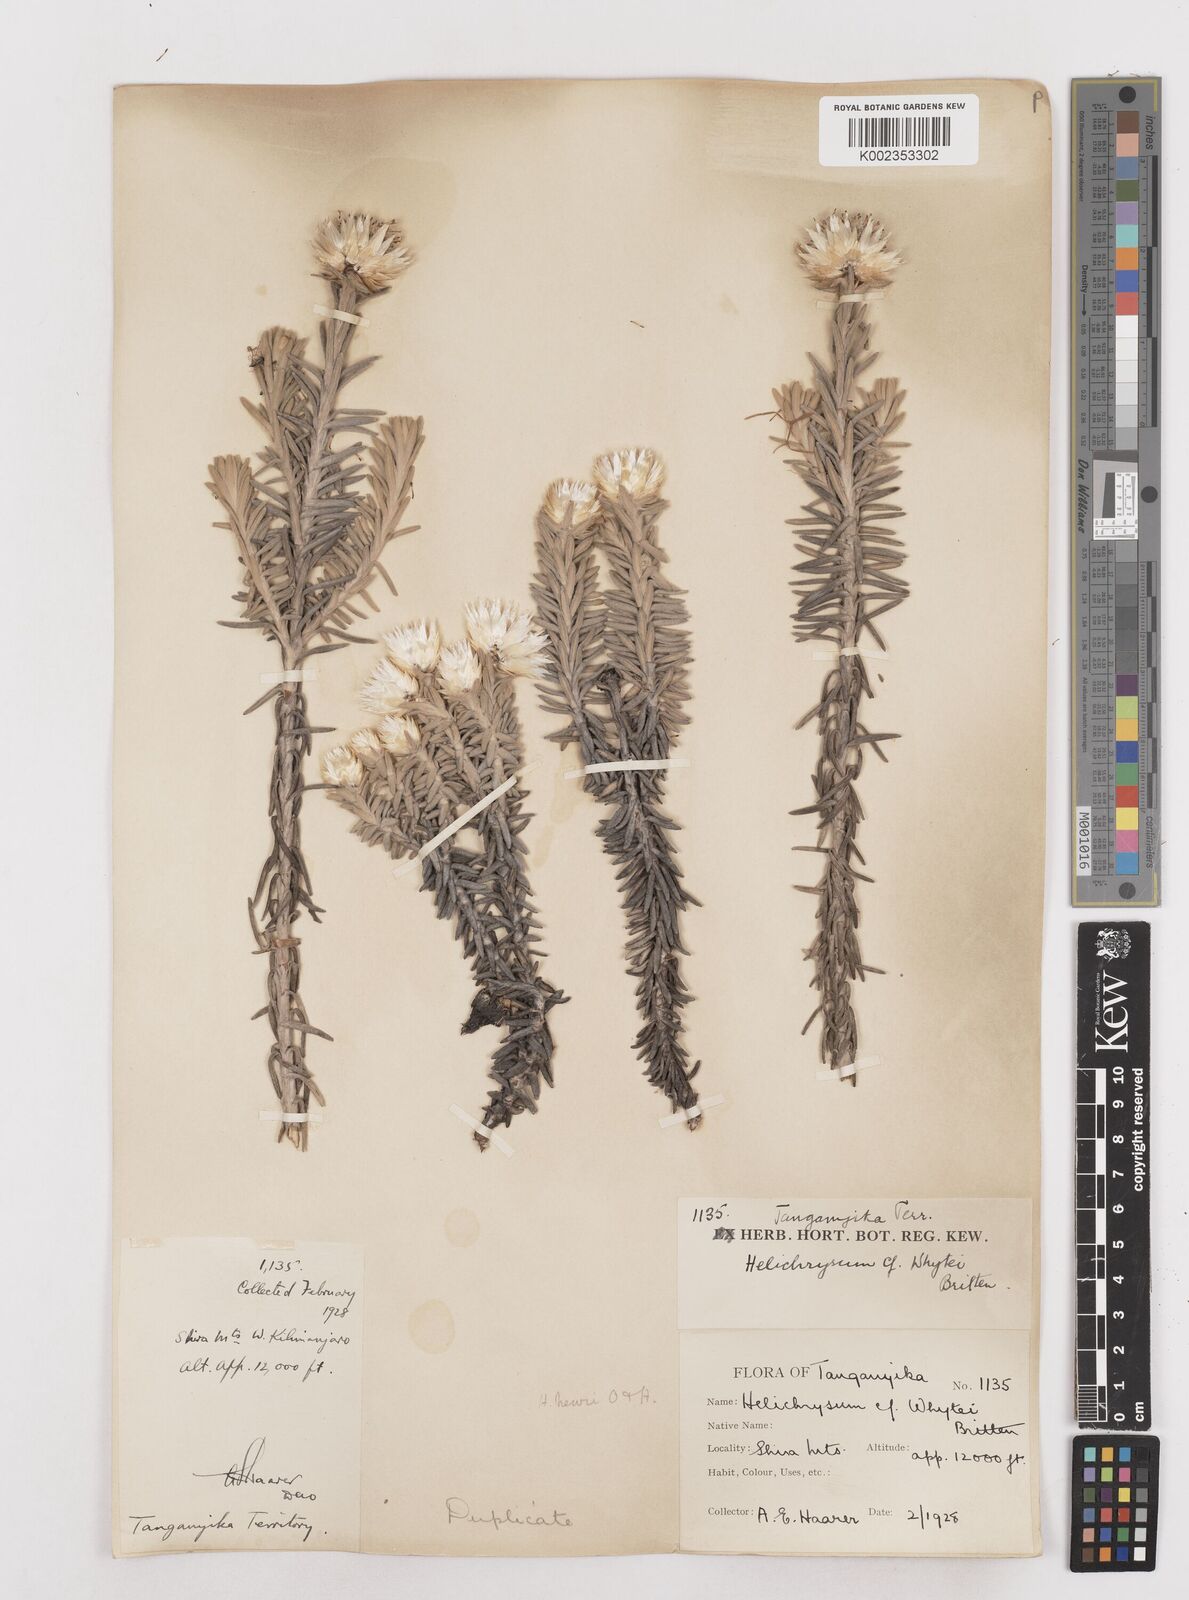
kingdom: Plantae
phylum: Tracheophyta
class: Magnoliopsida
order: Asterales
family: Asteraceae
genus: Helichrysum
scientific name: Helichrysum newii
